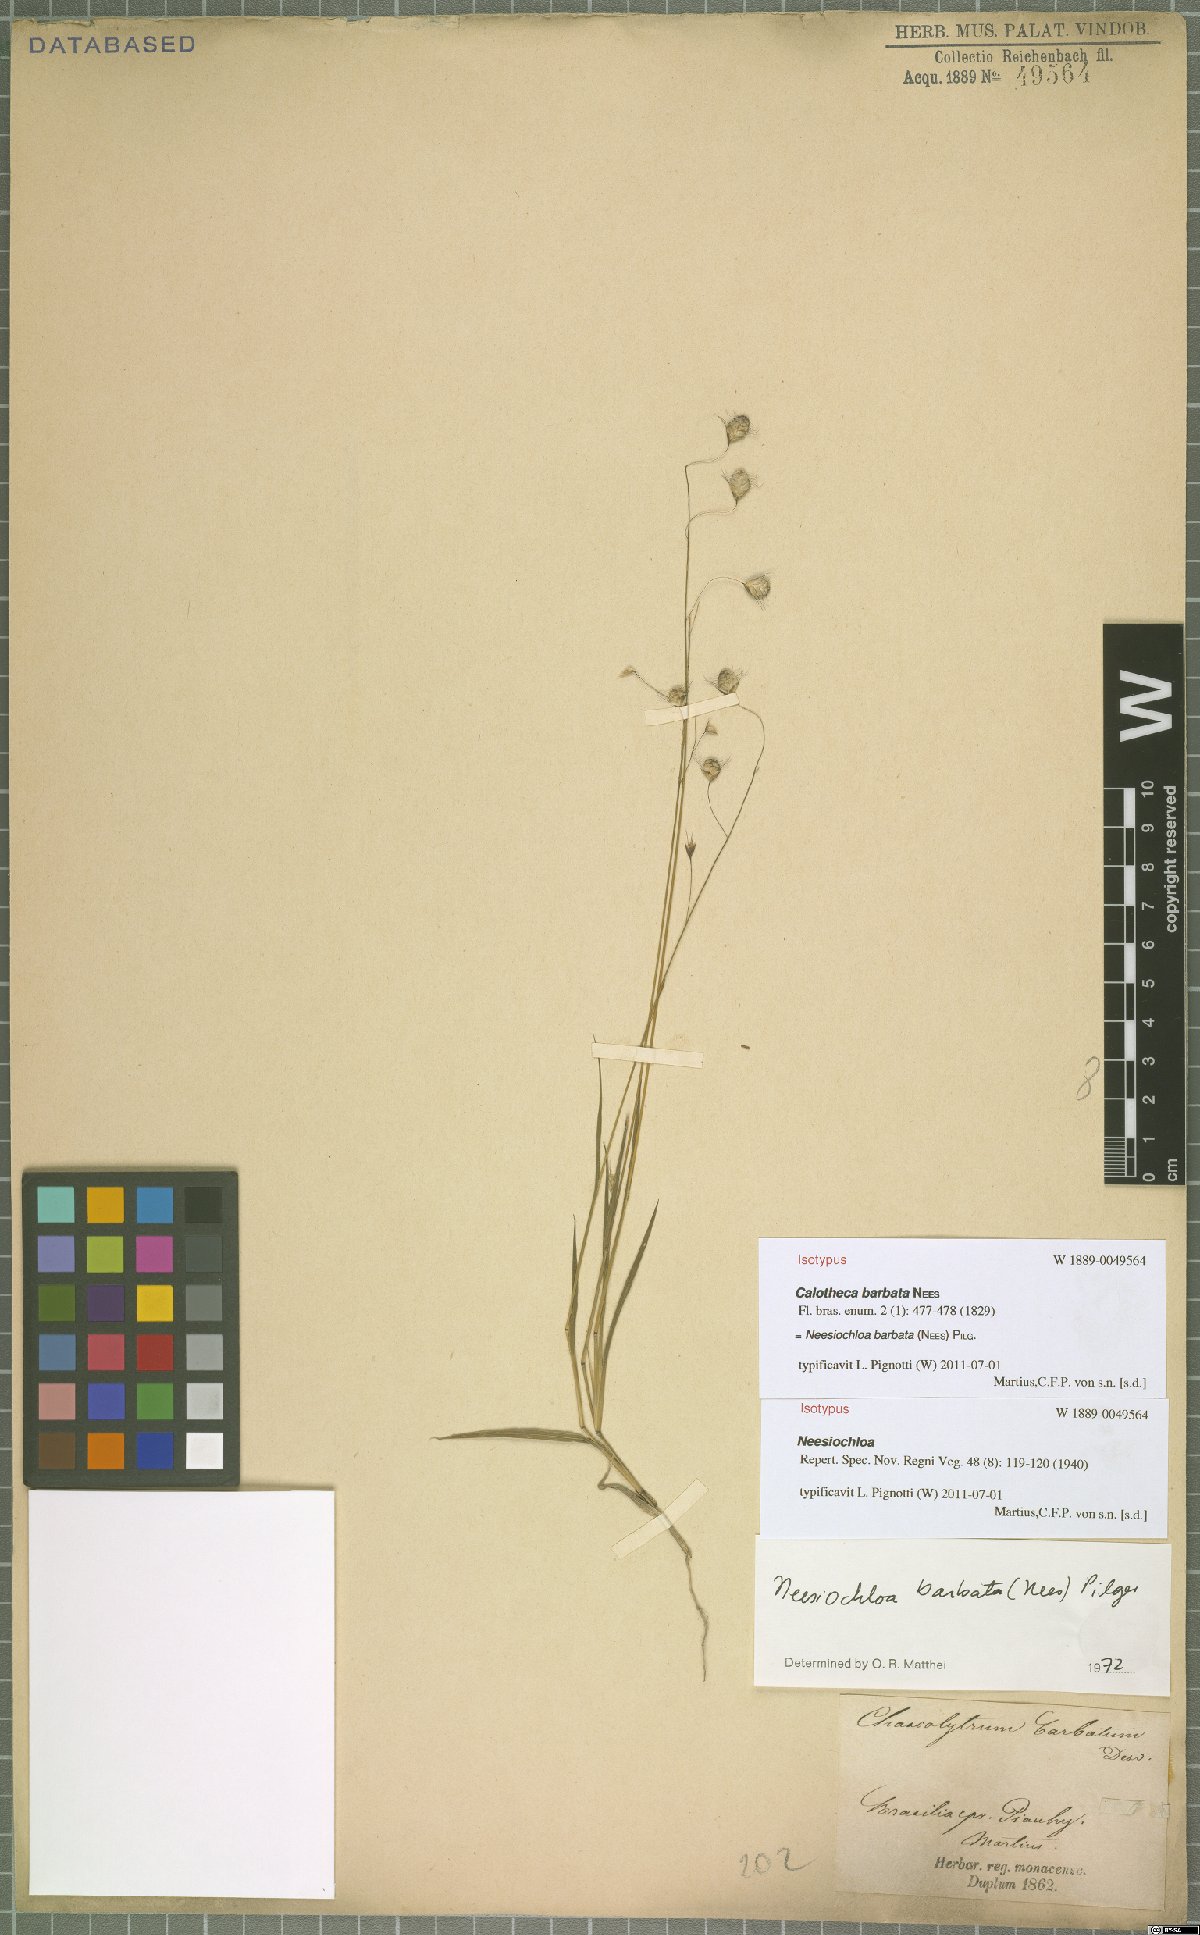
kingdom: Plantae
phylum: Tracheophyta
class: Liliopsida
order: Poales
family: Poaceae
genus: Neesiochloa
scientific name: Neesiochloa barbata
